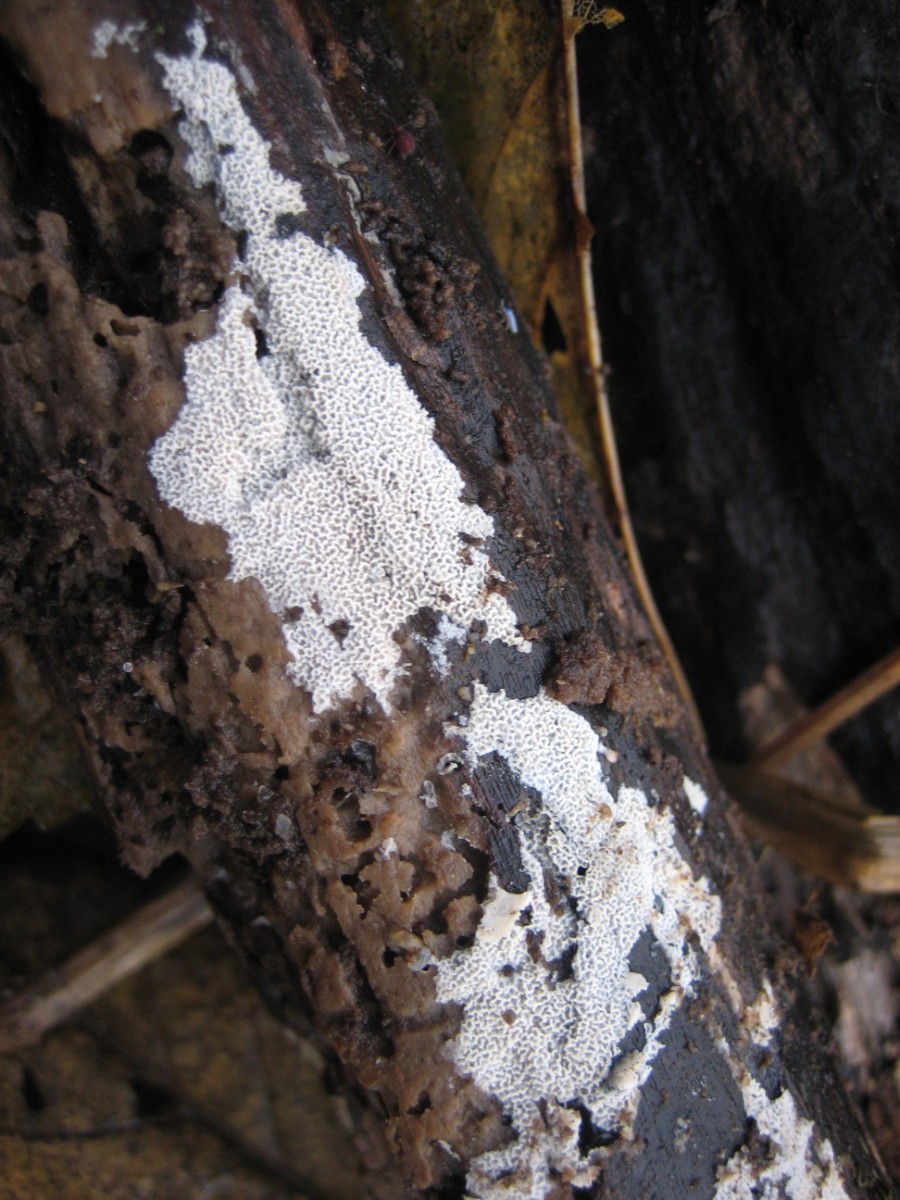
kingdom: Fungi
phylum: Basidiomycota
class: Agaricomycetes
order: Polyporales
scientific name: Polyporales
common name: poresvampordenen
